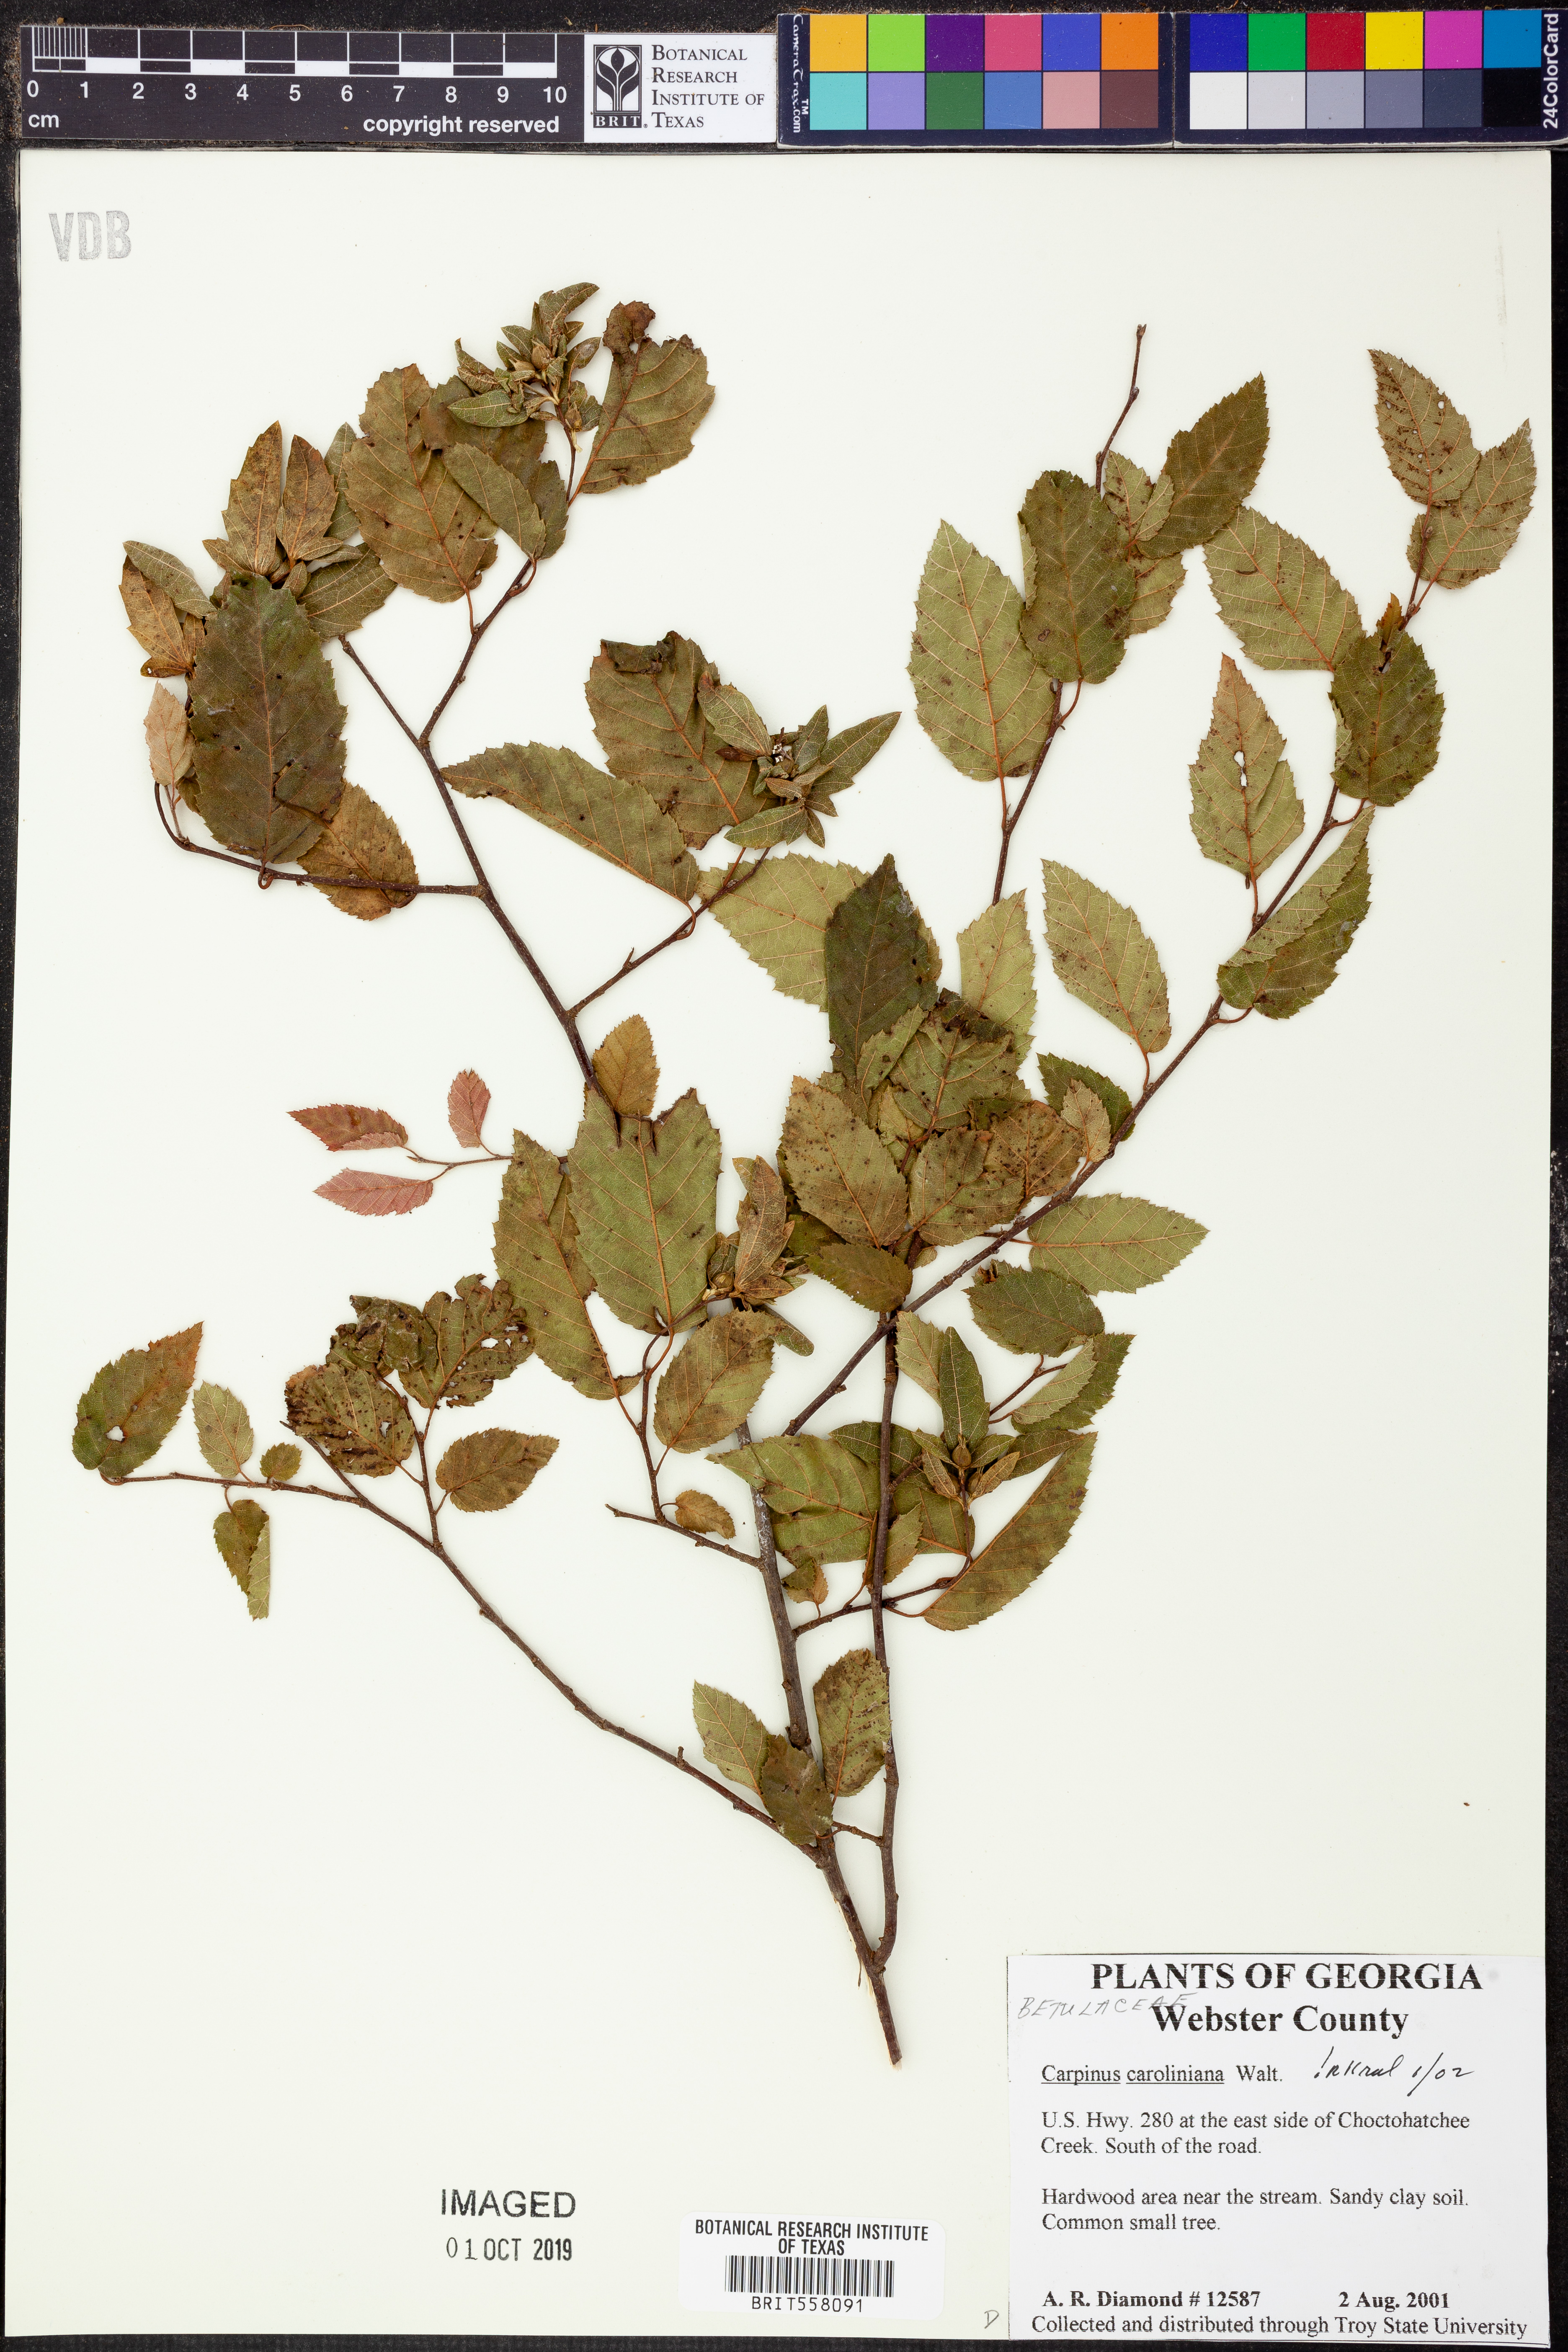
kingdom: Plantae
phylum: Tracheophyta
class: Magnoliopsida
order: Fagales
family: Betulaceae
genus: Carpinus
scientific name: Carpinus caroliniana
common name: American hornbeam
